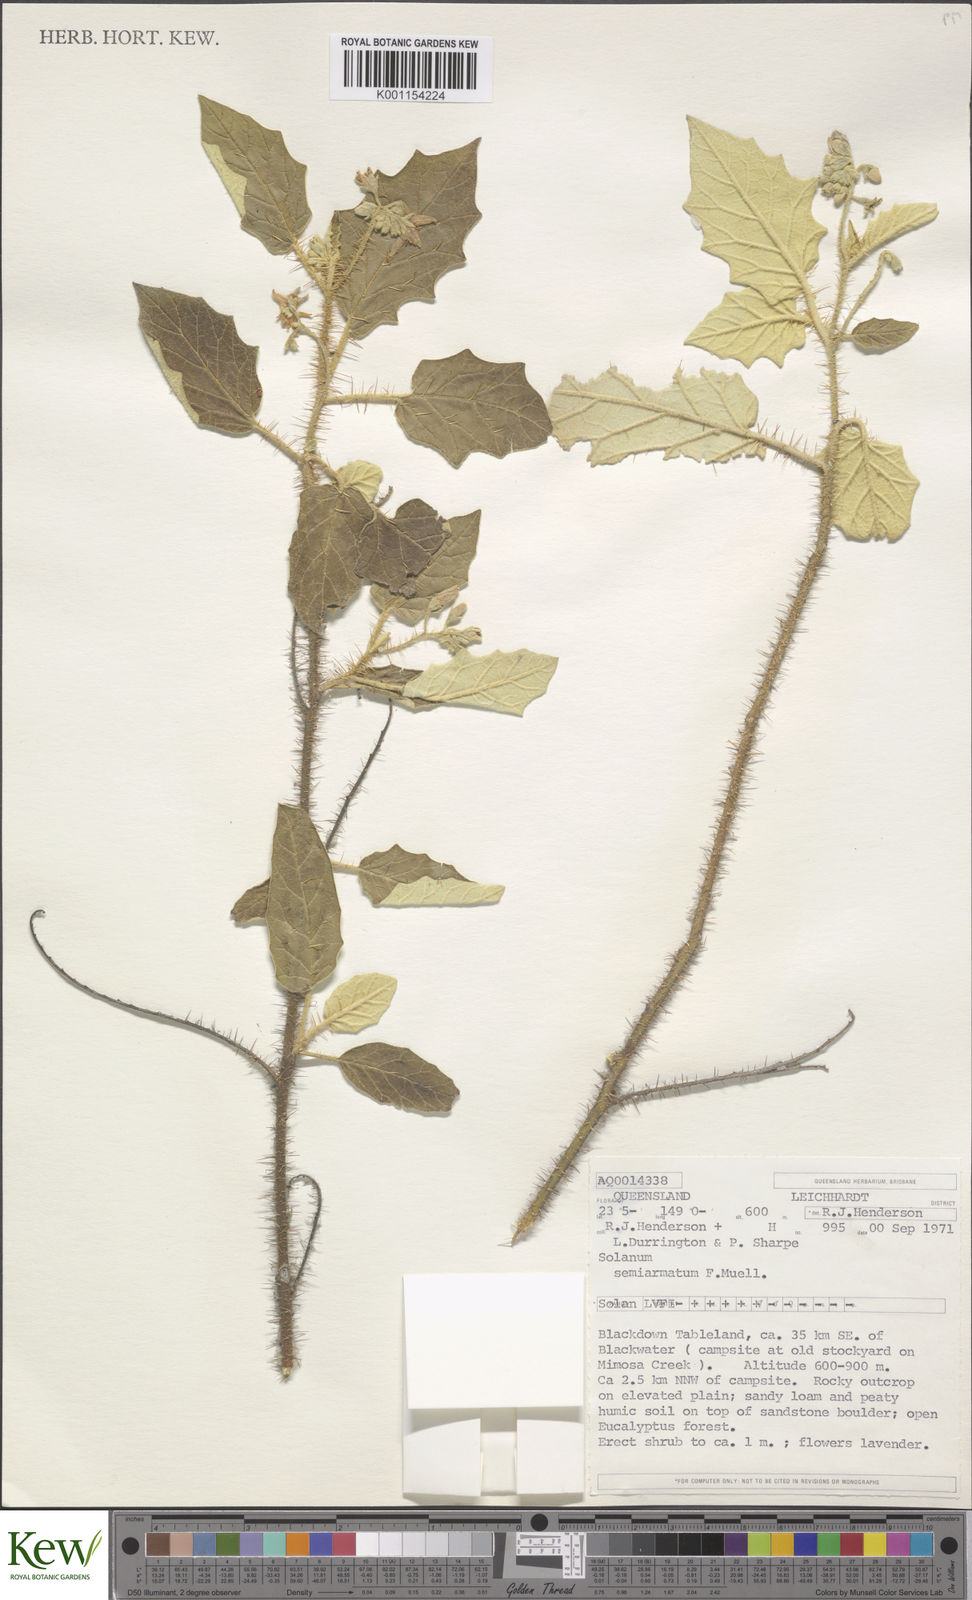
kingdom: Plantae
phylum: Tracheophyta
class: Magnoliopsida
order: Solanales
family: Solanaceae
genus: Solanum
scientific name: Solanum semiarmatum
